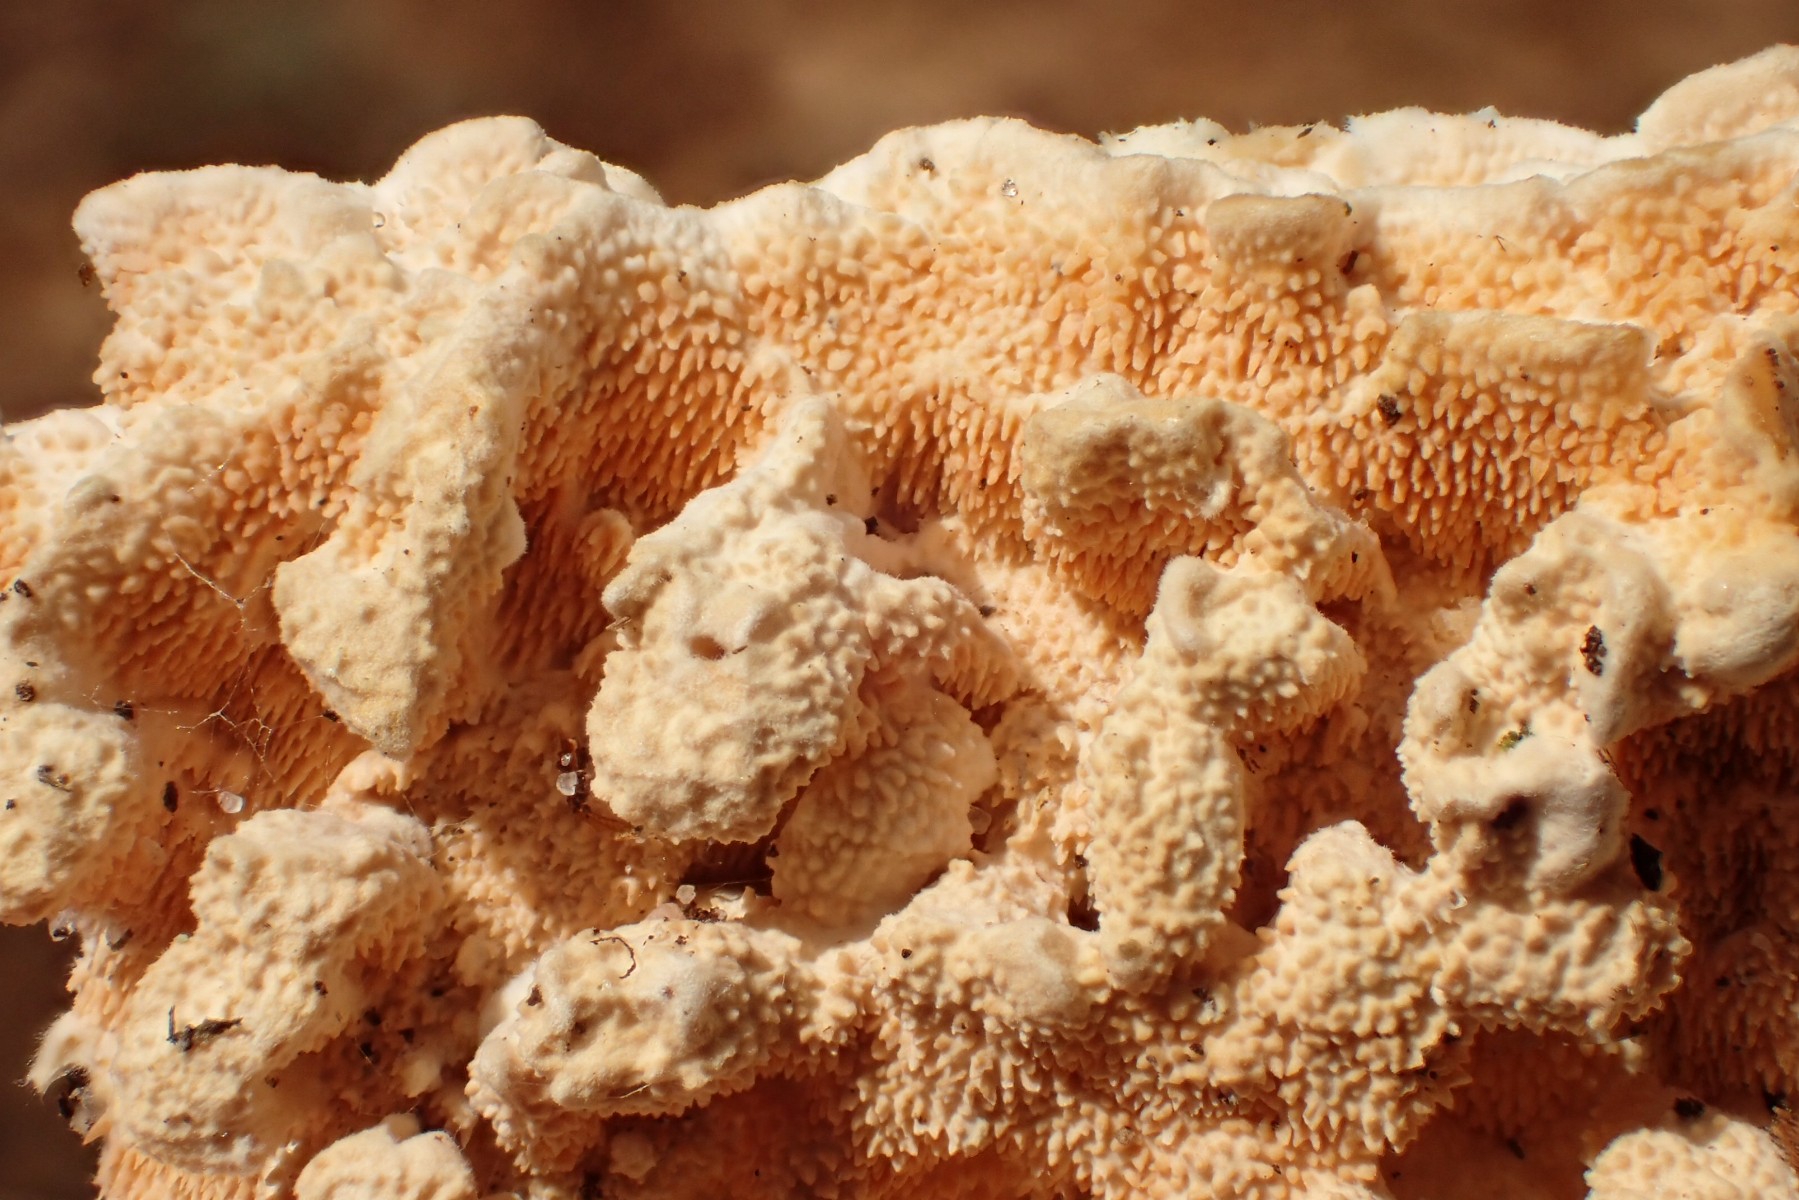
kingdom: Fungi
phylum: Basidiomycota
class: Agaricomycetes
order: Polyporales
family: Steccherinaceae
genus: Steccherinum
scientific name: Steccherinum ochraceum
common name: almindelig skønpig
